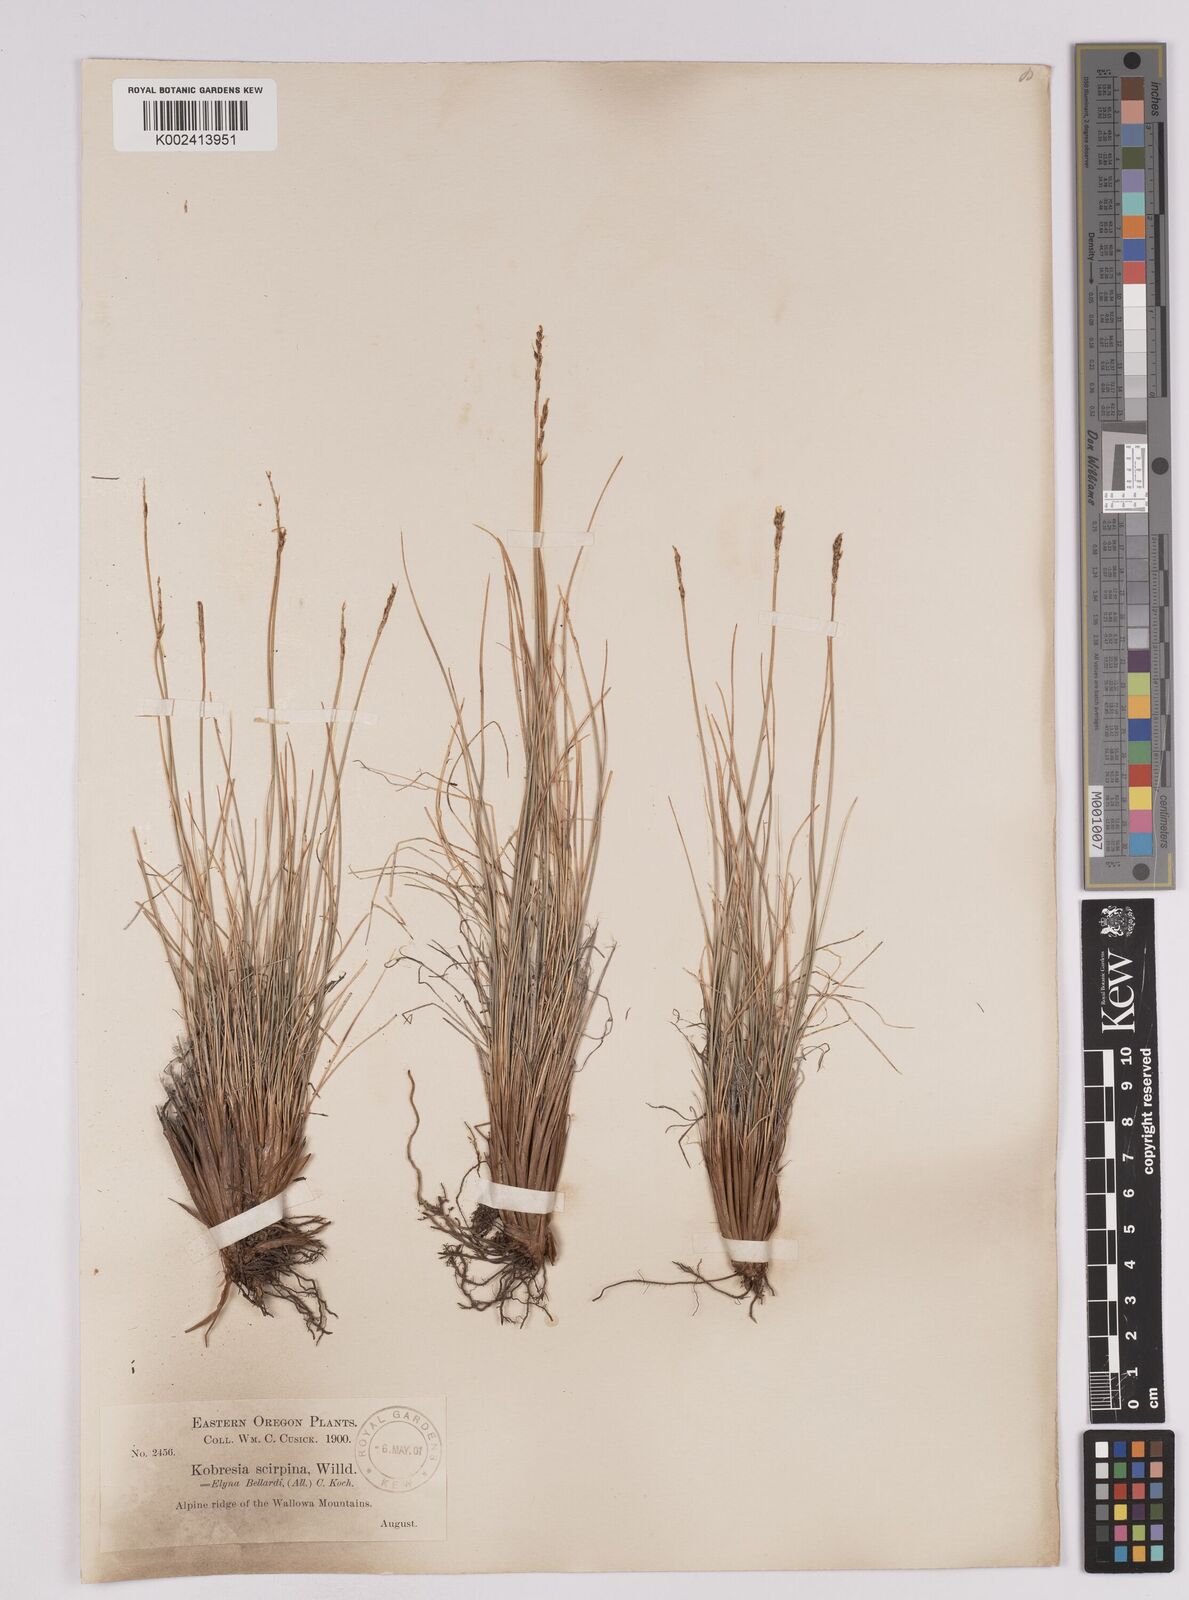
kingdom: Plantae
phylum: Tracheophyta
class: Liliopsida
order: Poales
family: Cyperaceae
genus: Carex
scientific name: Carex myosuroides
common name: Bellard's bog sedge
